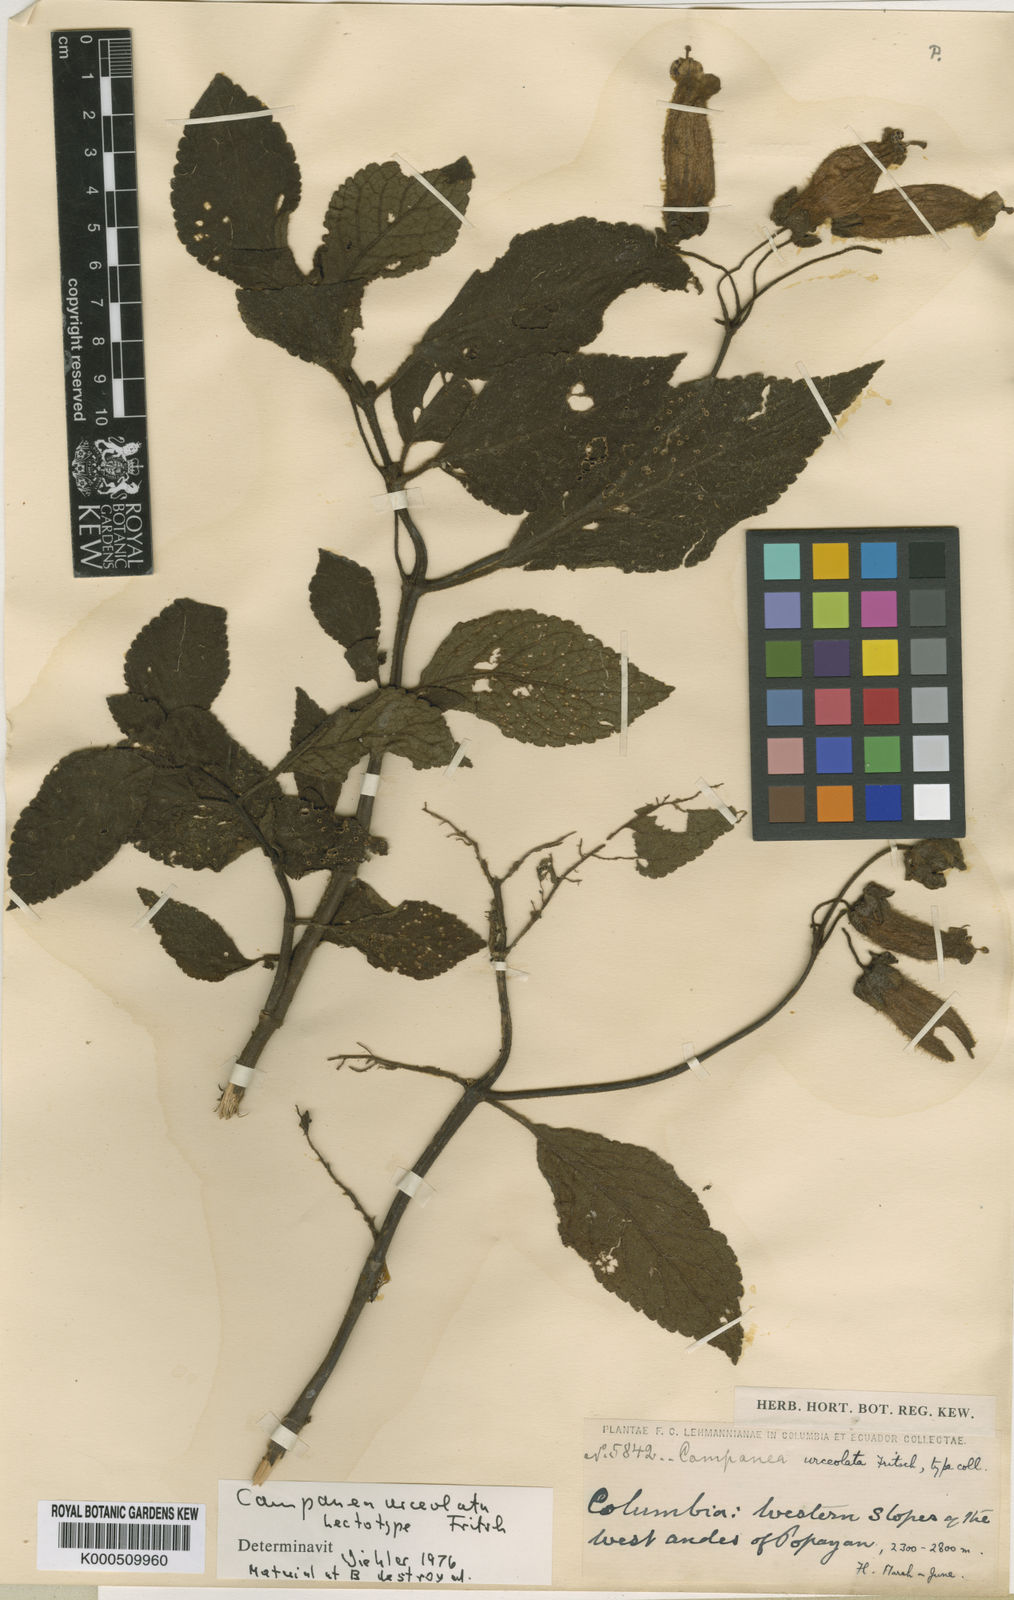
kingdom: Plantae
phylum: Tracheophyta
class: Magnoliopsida
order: Lamiales
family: Gesneriaceae
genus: Kohleria
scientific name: Kohleria
